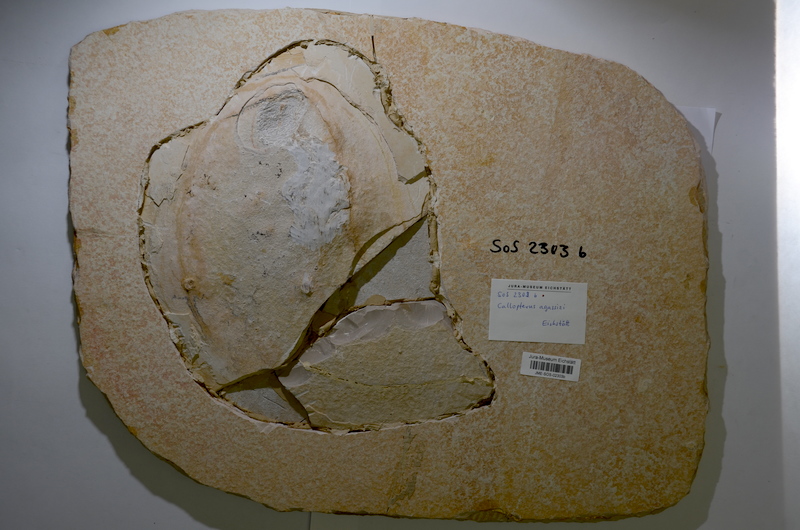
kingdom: Animalia
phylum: Chordata
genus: Callopterus
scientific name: Callopterus armata
